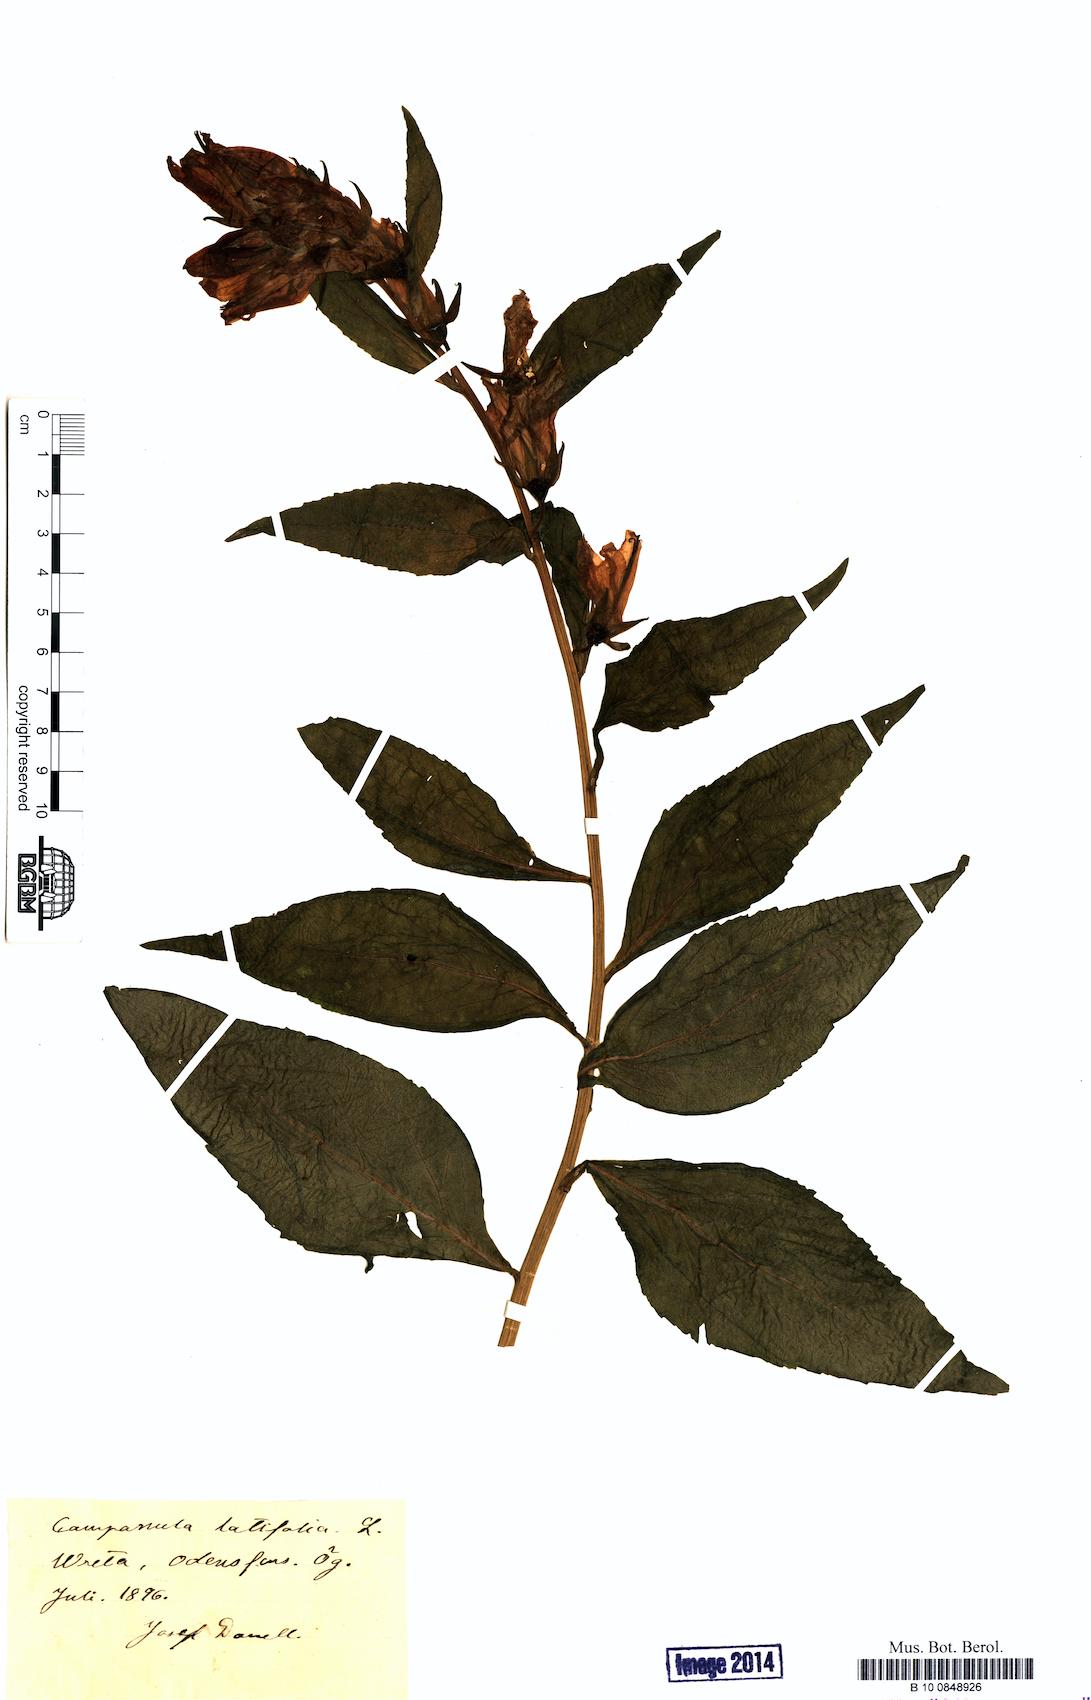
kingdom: Plantae
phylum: Tracheophyta
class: Magnoliopsida
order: Asterales
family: Campanulaceae
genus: Campanula
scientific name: Campanula latifolia
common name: Giant bellflower
